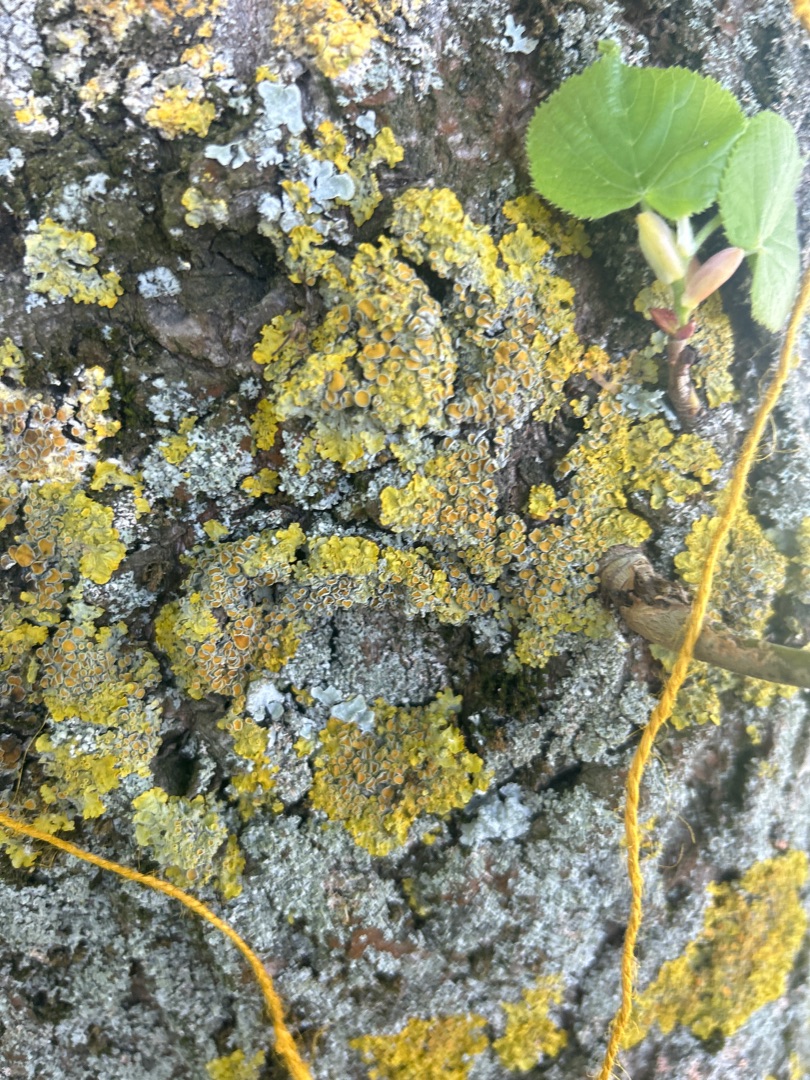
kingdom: Fungi
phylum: Ascomycota
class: Lecanoromycetes
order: Teloschistales
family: Teloschistaceae
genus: Xanthoria
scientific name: Xanthoria parietina
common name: Almindelig væggelav
